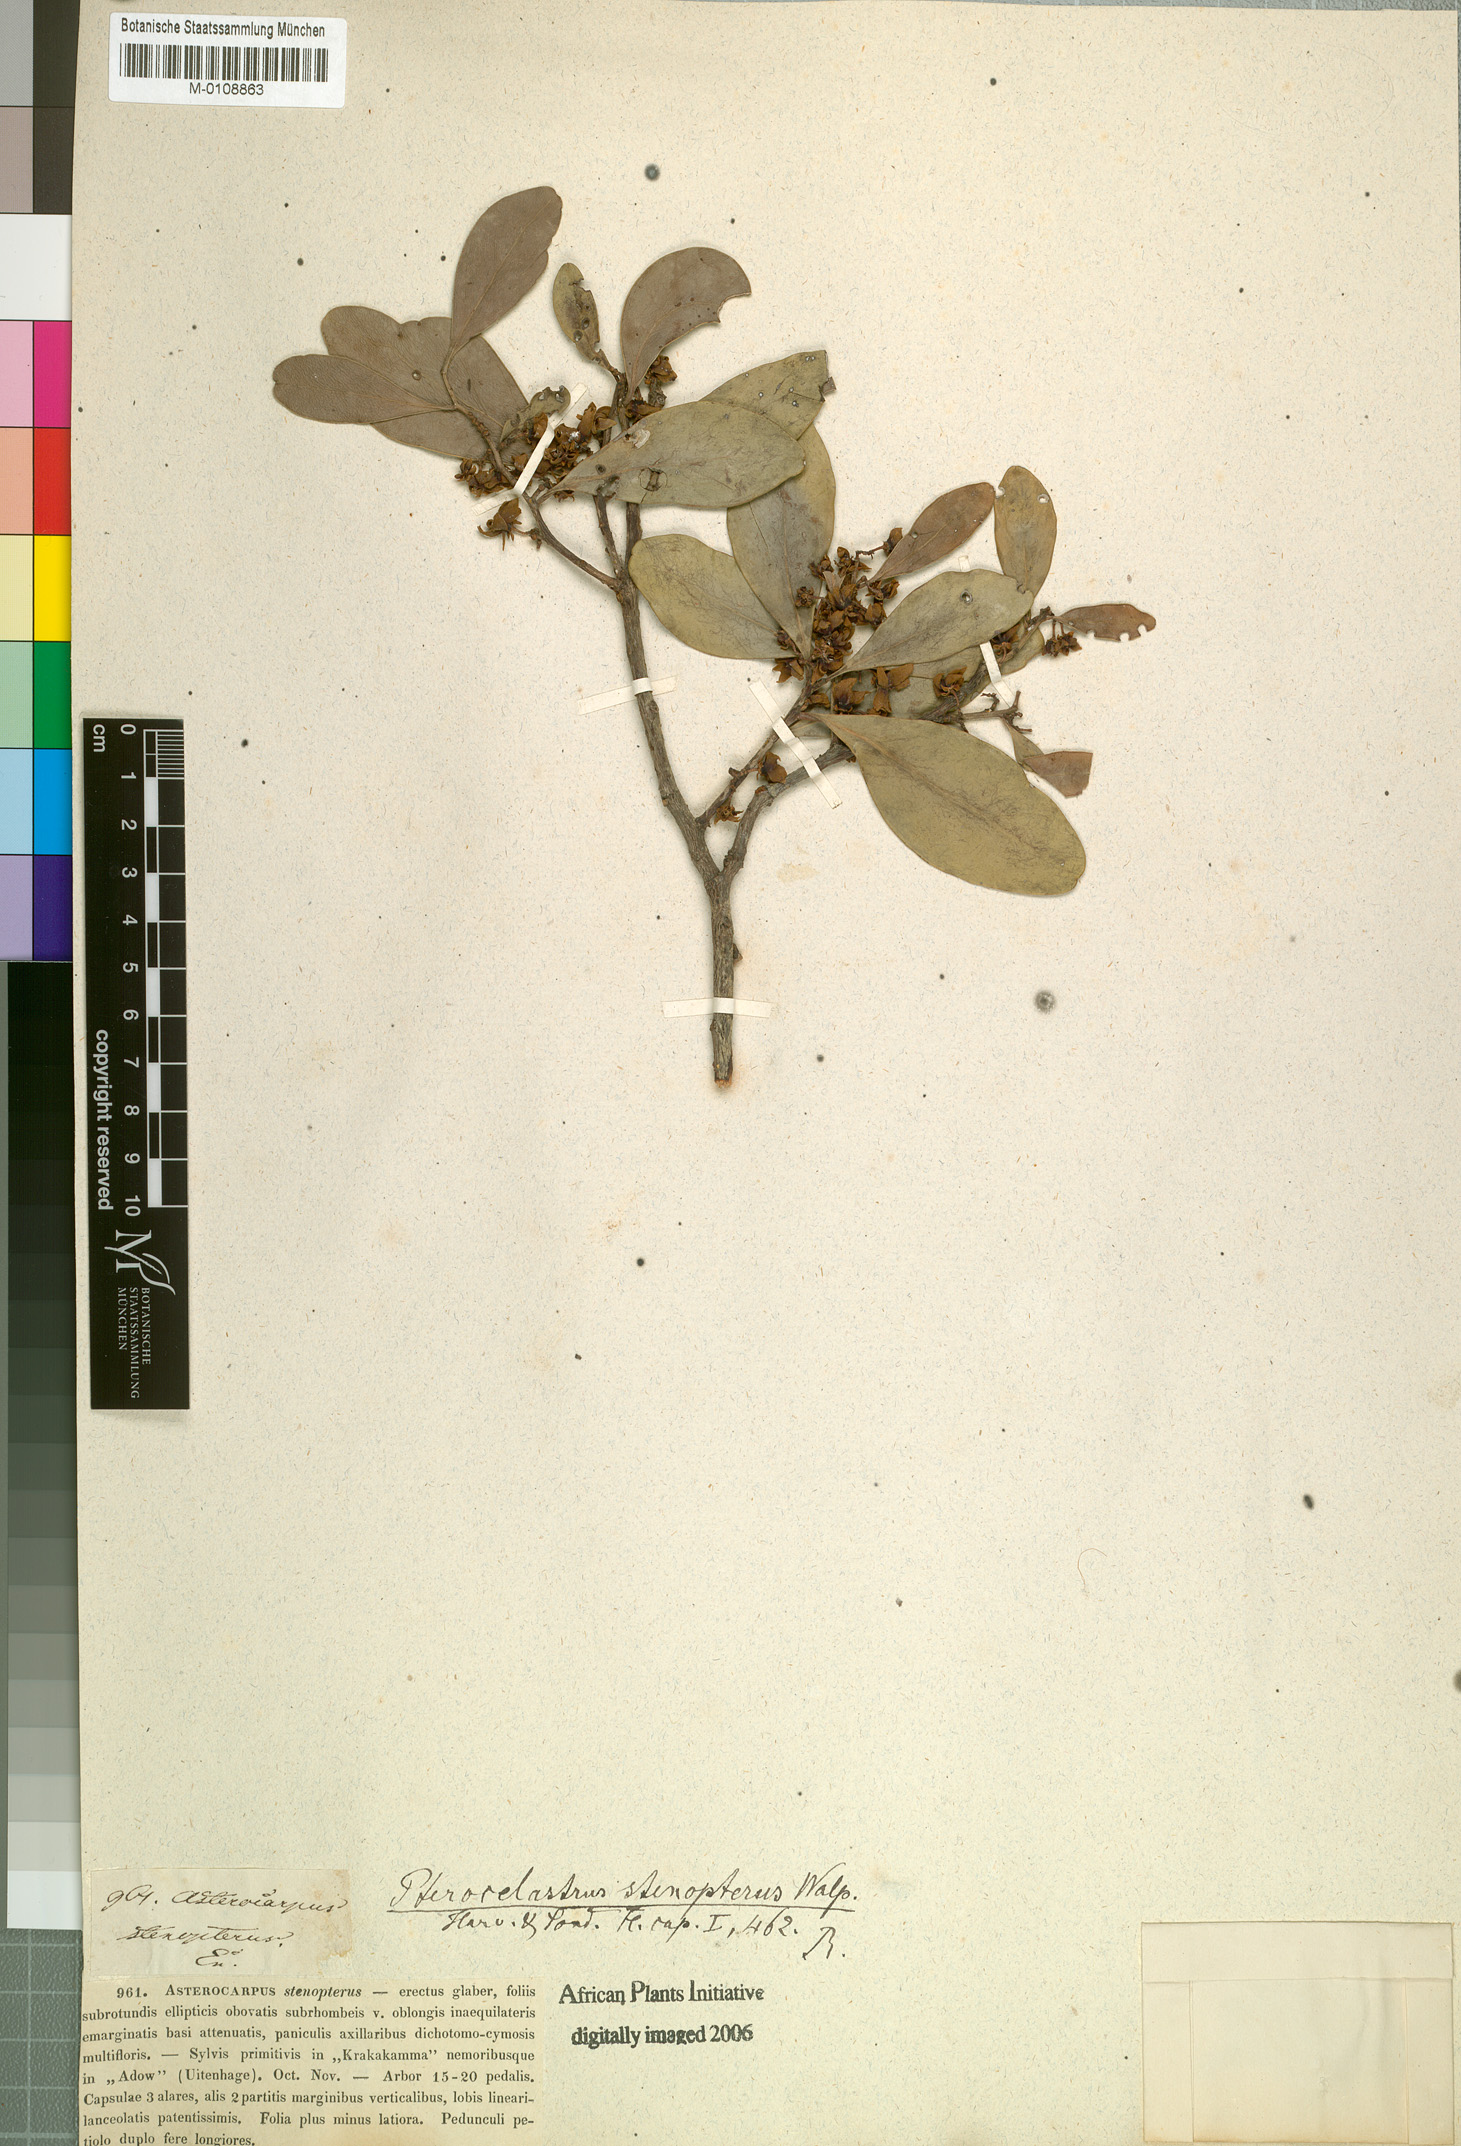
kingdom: Plantae
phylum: Tracheophyta
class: Magnoliopsida
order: Celastrales
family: Celastraceae
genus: Pterocelastrus
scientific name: Pterocelastrus tricuspidatus
